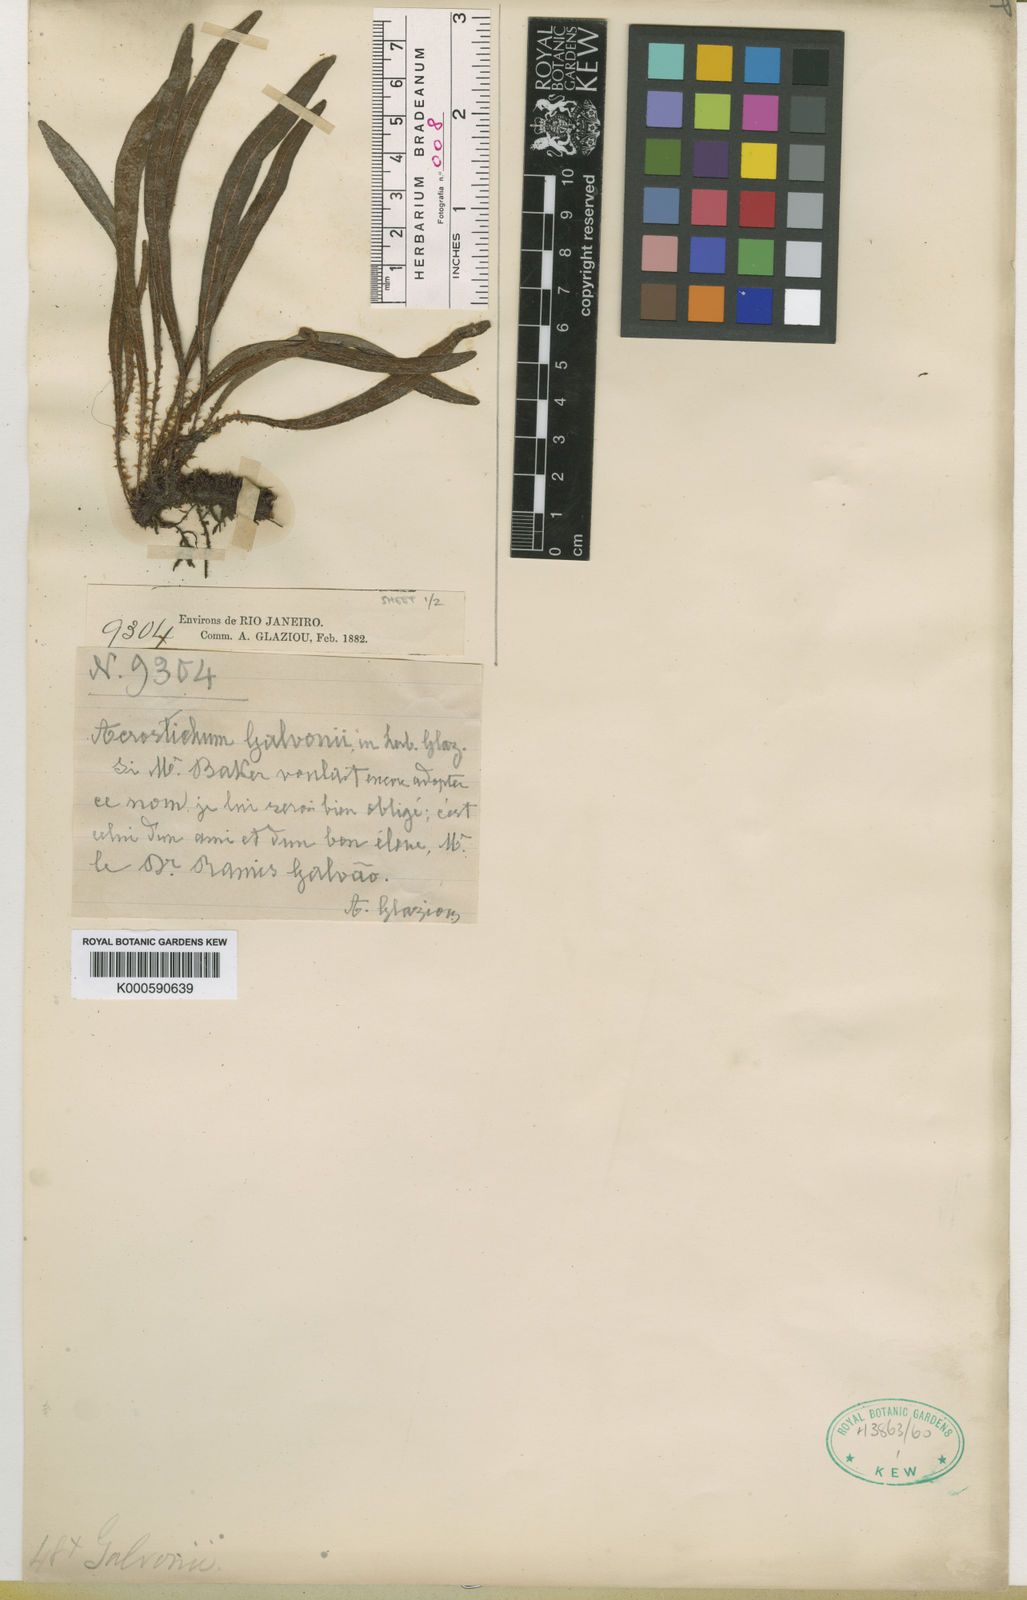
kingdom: Plantae
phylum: Tracheophyta
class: Polypodiopsida
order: Polypodiales
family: Dryopteridaceae
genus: Elaphoglossum
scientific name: Elaphoglossum
